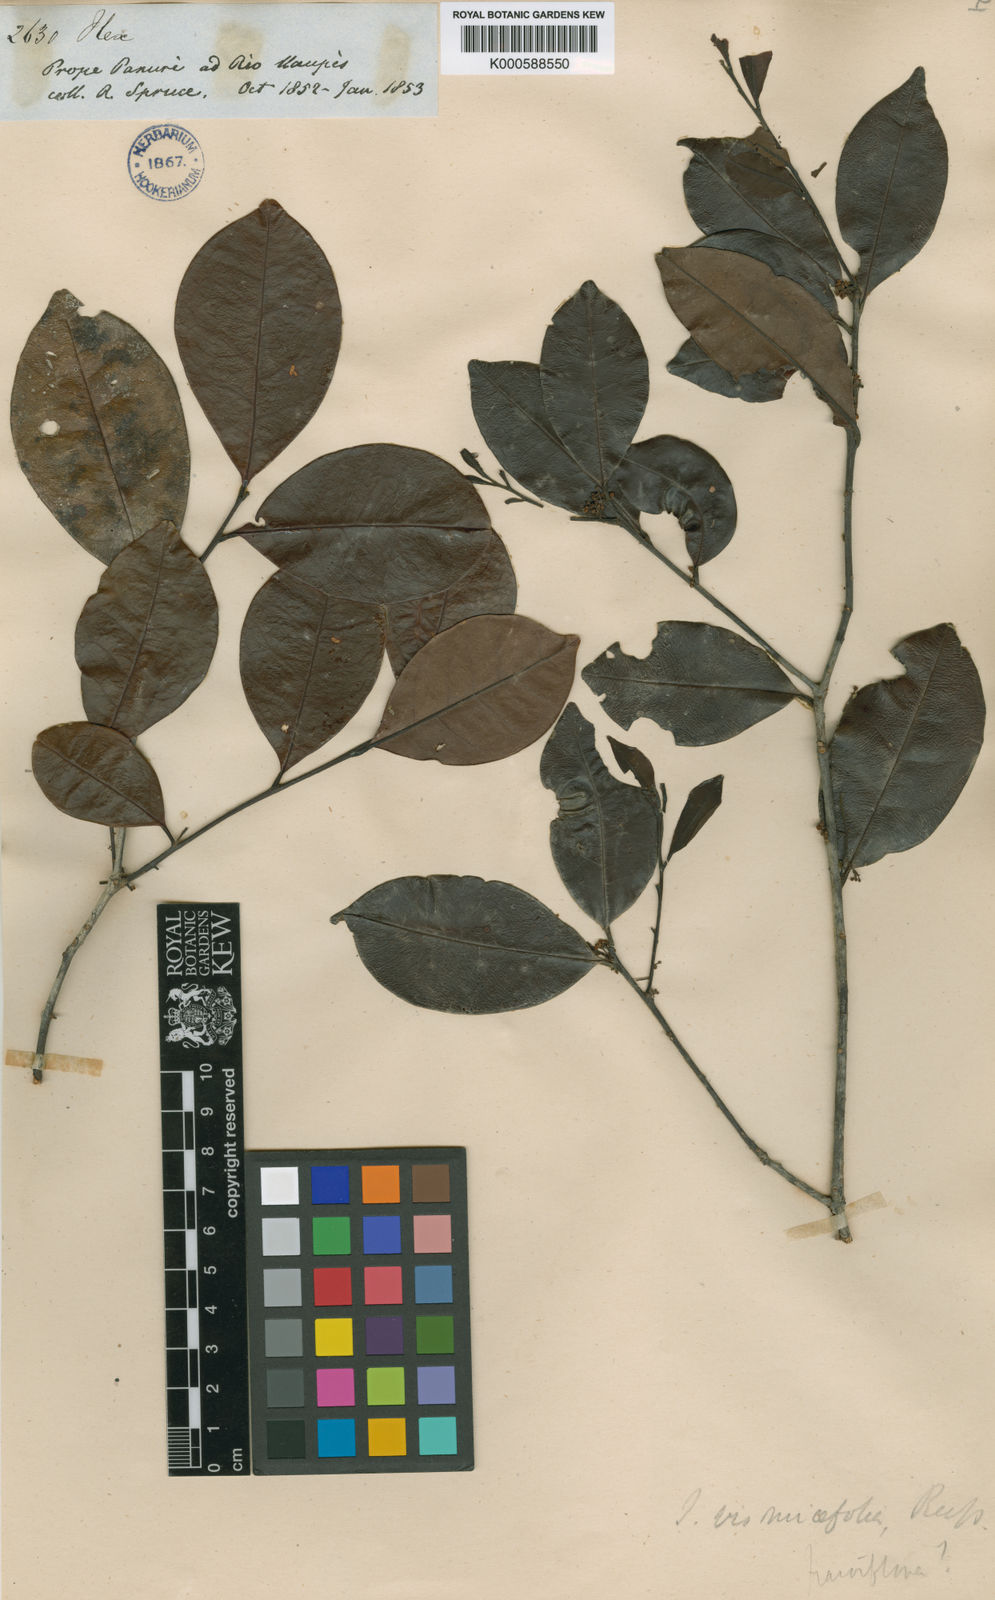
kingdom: Plantae
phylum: Tracheophyta
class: Magnoliopsida
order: Aquifoliales
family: Aquifoliaceae
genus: Ilex
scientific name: Ilex vismiifolia
